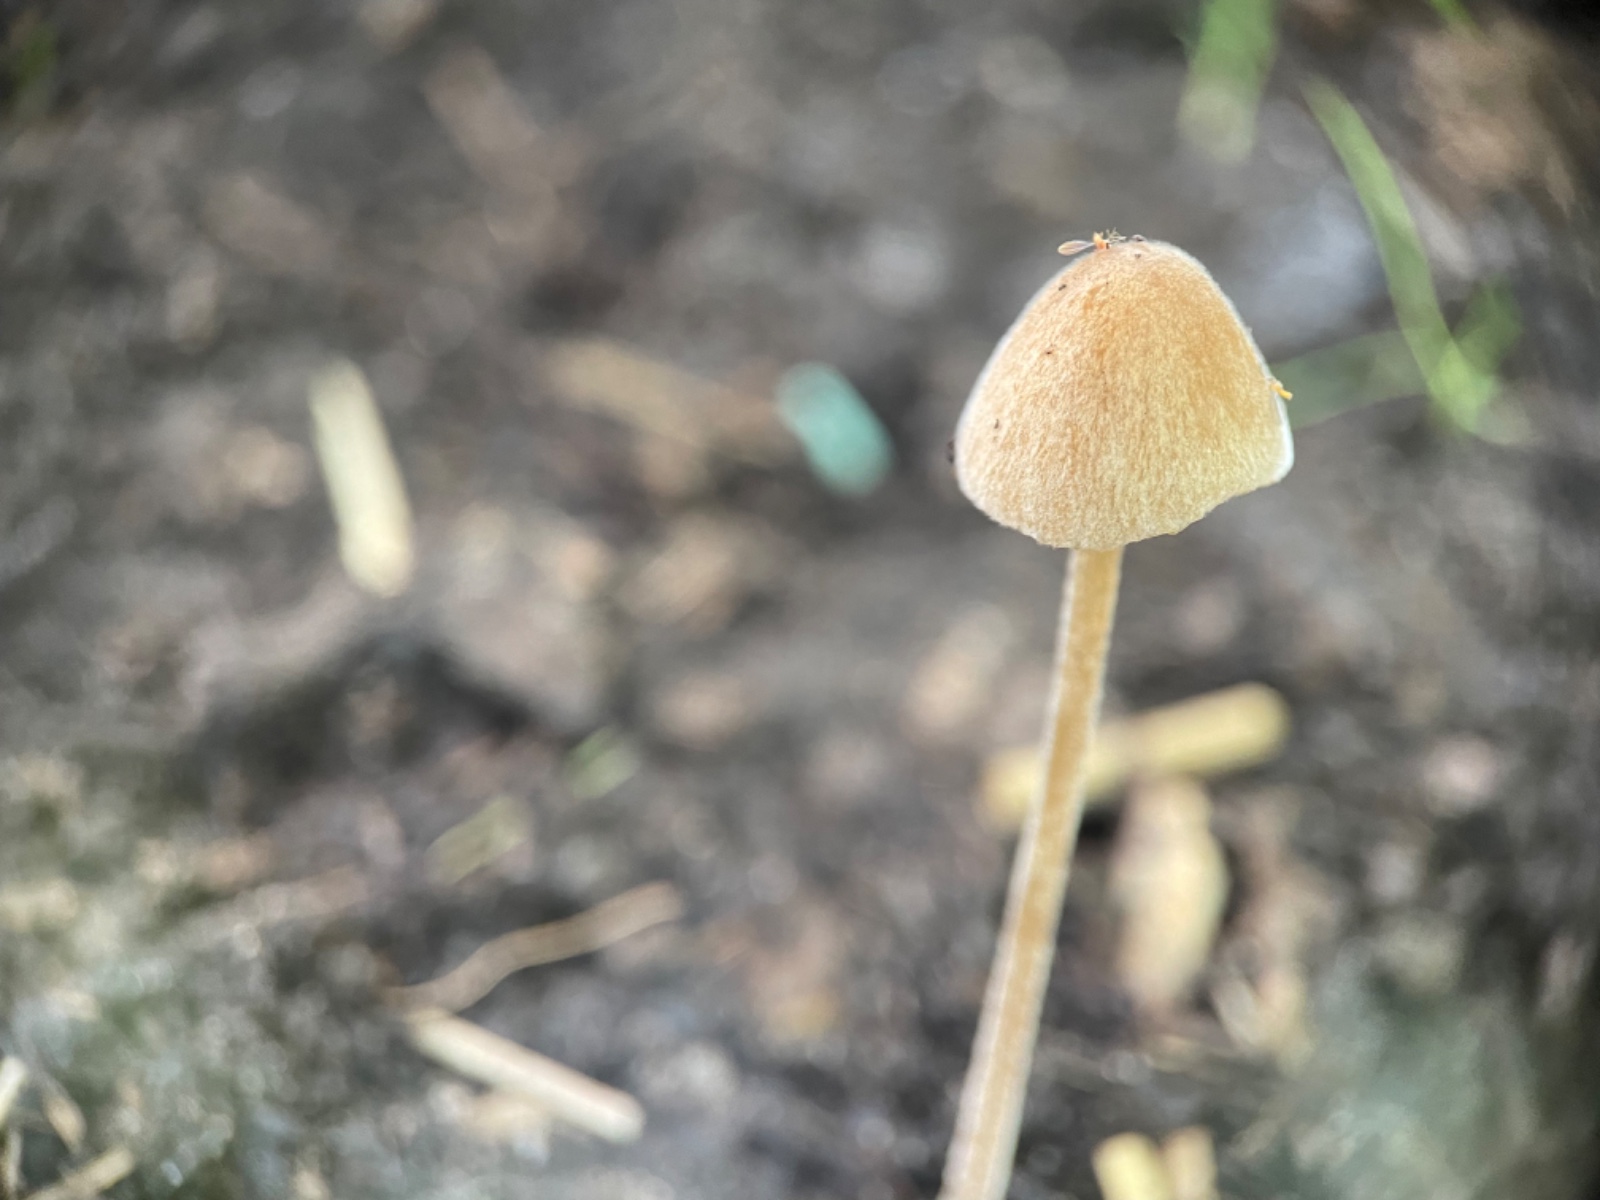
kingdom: Fungi
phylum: Basidiomycota
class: Agaricomycetes
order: Agaricales
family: Bolbitiaceae
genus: Conocybe
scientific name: Conocybe
